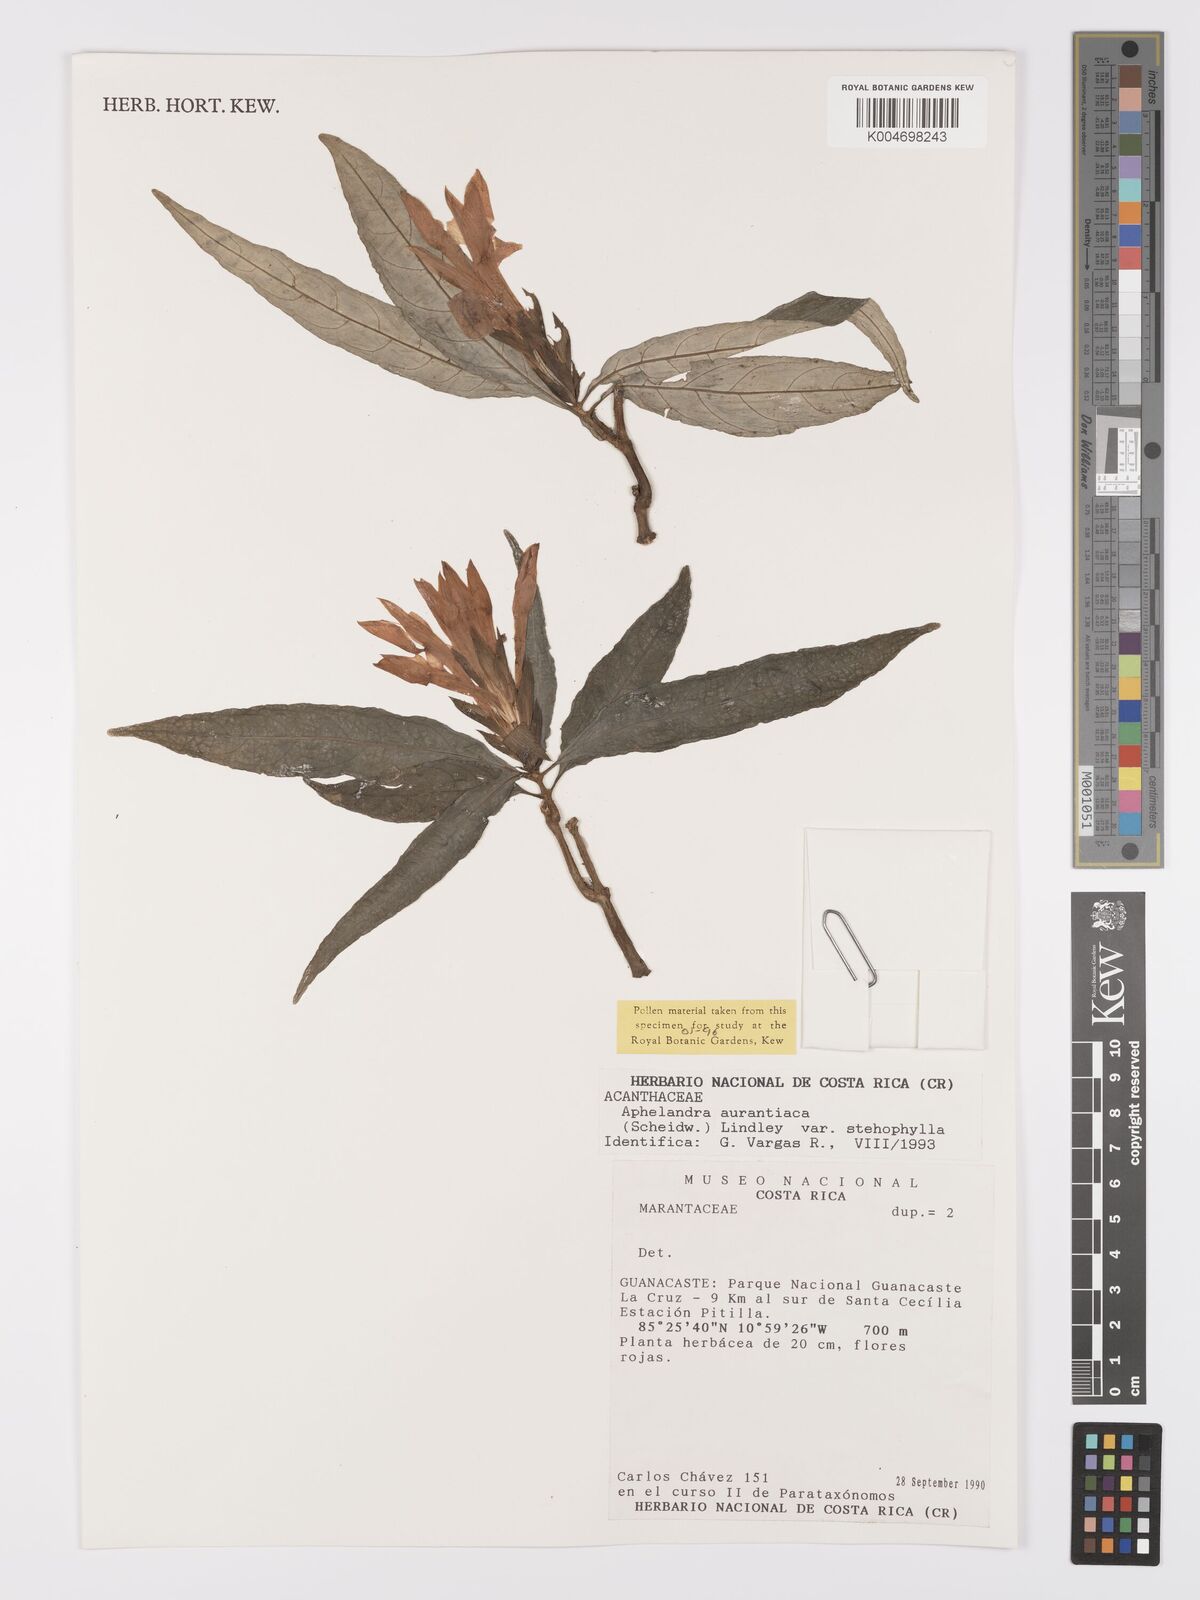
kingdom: Plantae
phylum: Tracheophyta
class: Magnoliopsida
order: Lamiales
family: Acanthaceae
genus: Aphelandra
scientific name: Aphelandra aurantiaca
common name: Fiery spike
